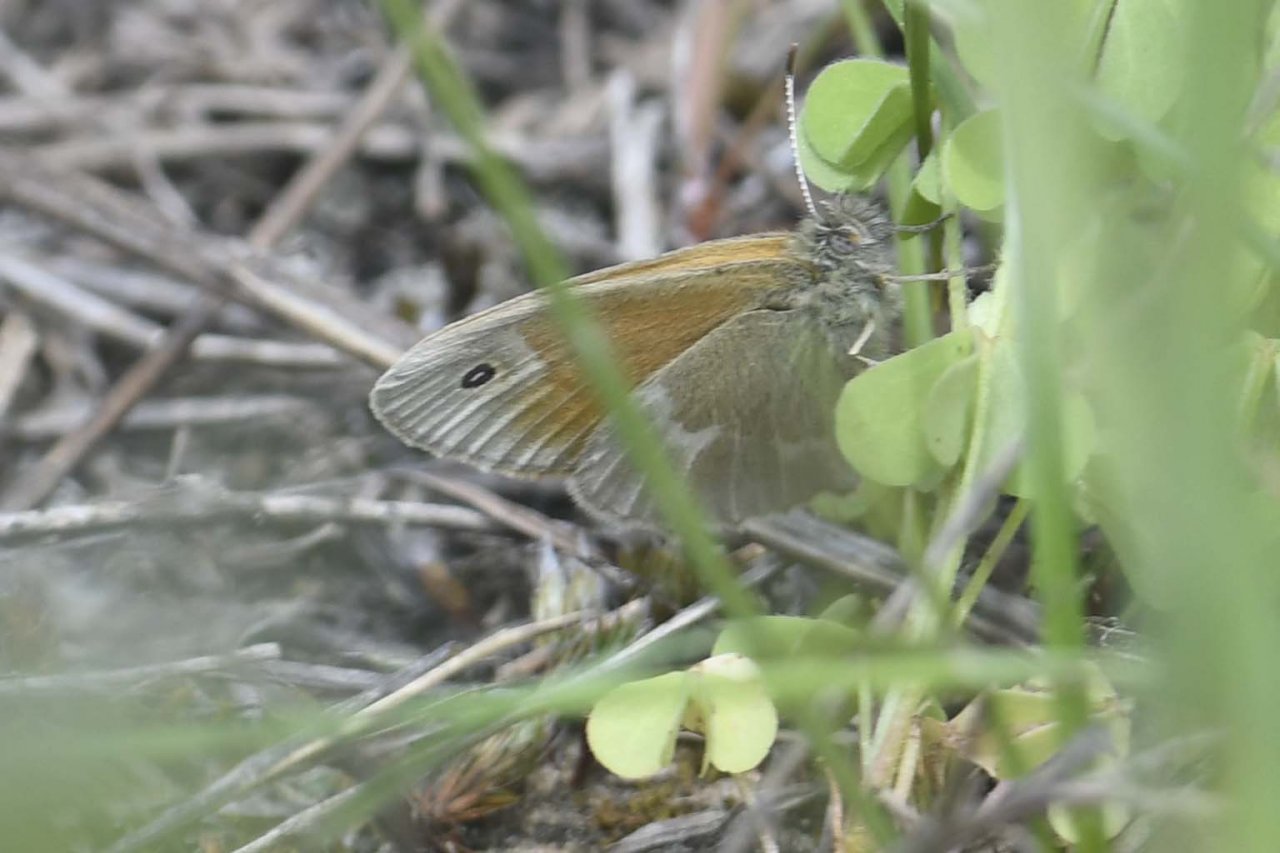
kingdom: Animalia
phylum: Arthropoda
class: Insecta
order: Lepidoptera
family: Nymphalidae
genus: Coenonympha
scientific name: Coenonympha tullia
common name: Large Heath
